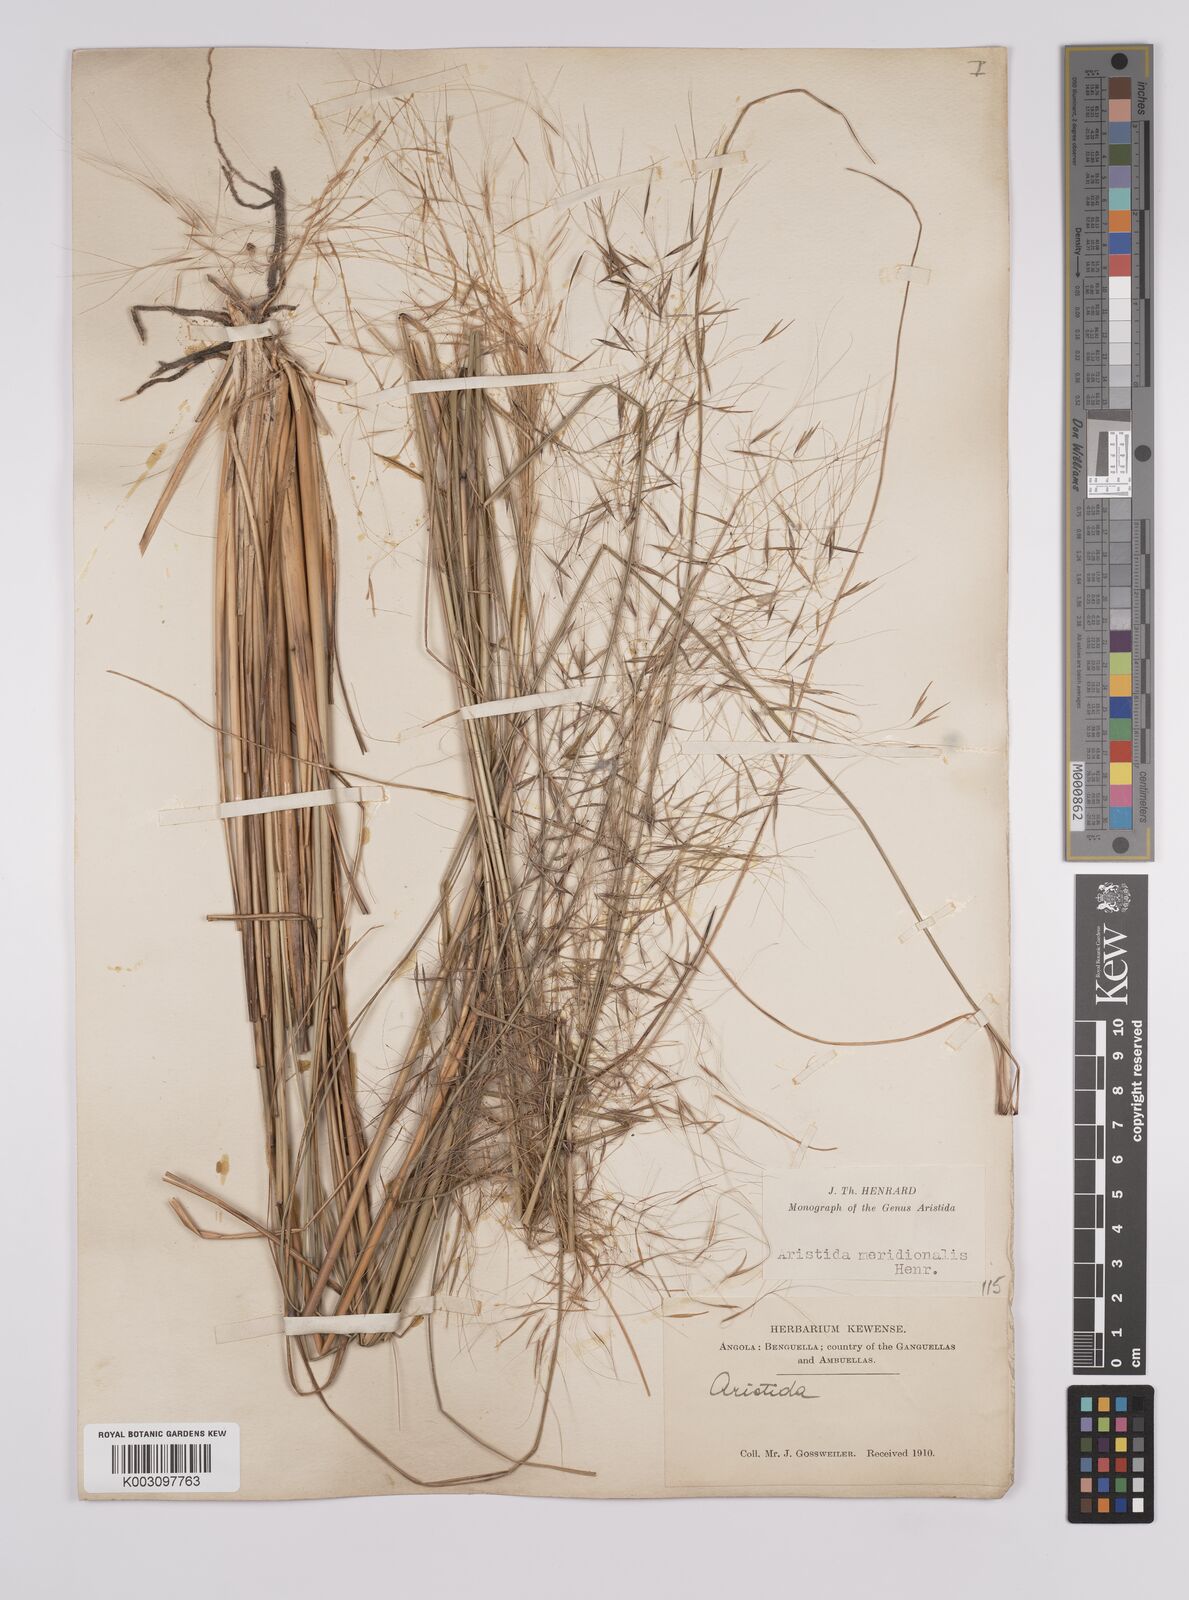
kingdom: Plantae
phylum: Tracheophyta
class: Liliopsida
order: Poales
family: Poaceae
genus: Aristida
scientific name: Aristida meridionalis
